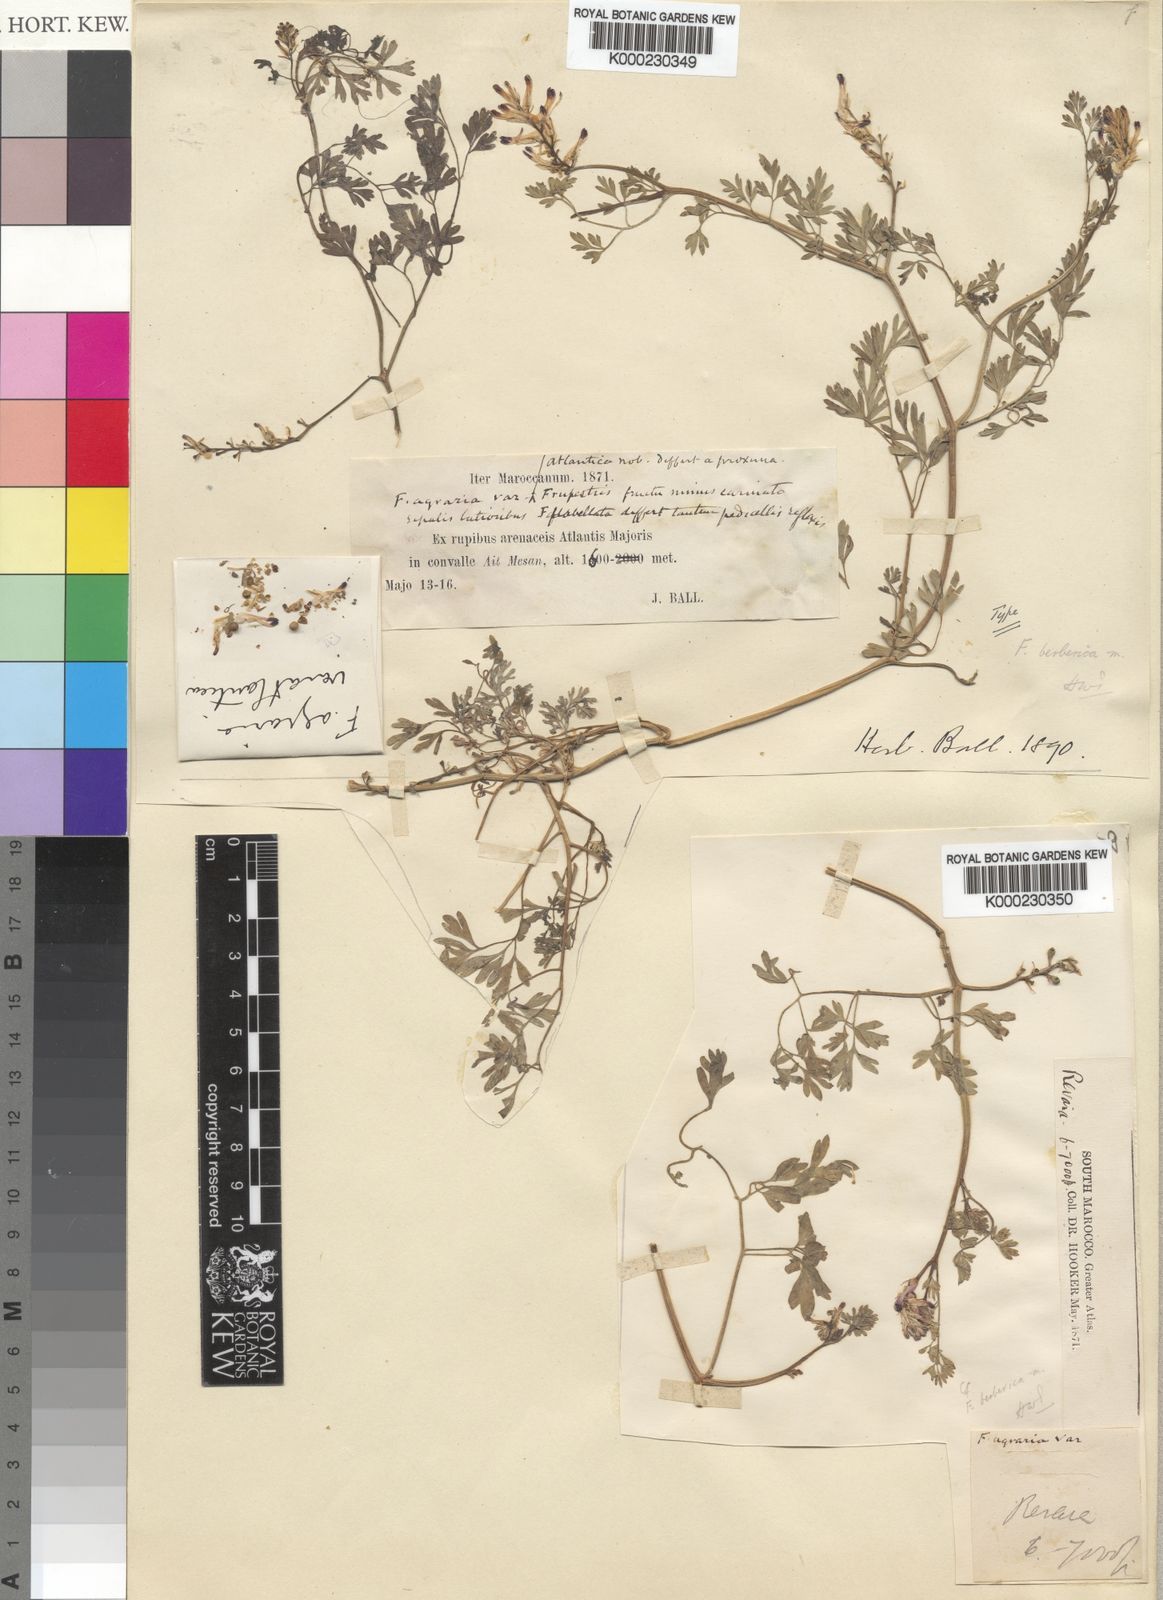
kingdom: Plantae
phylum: Tracheophyta
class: Magnoliopsida
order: Ranunculales
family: Papaveraceae
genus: Fumaria
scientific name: Fumaria berberica
